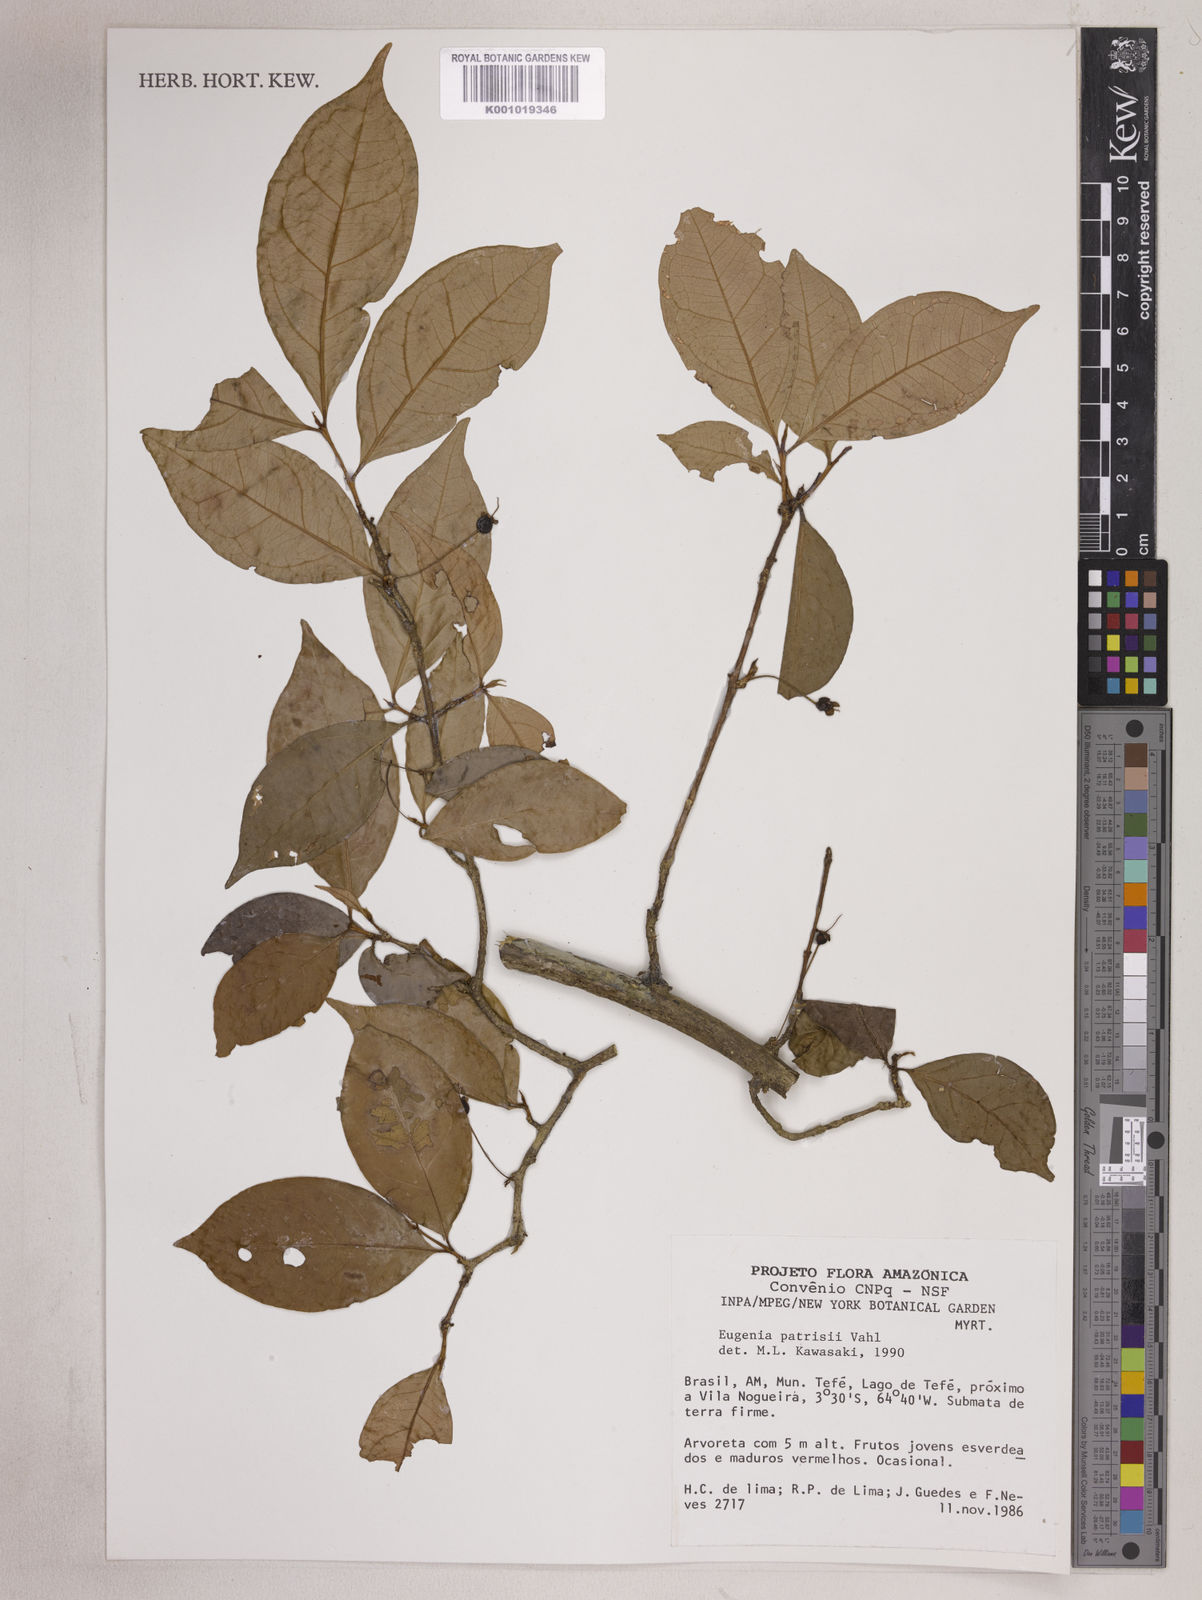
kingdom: Plantae
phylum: Tracheophyta
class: Magnoliopsida
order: Myrtales
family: Myrtaceae
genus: Eugenia
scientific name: Eugenia patrisii
